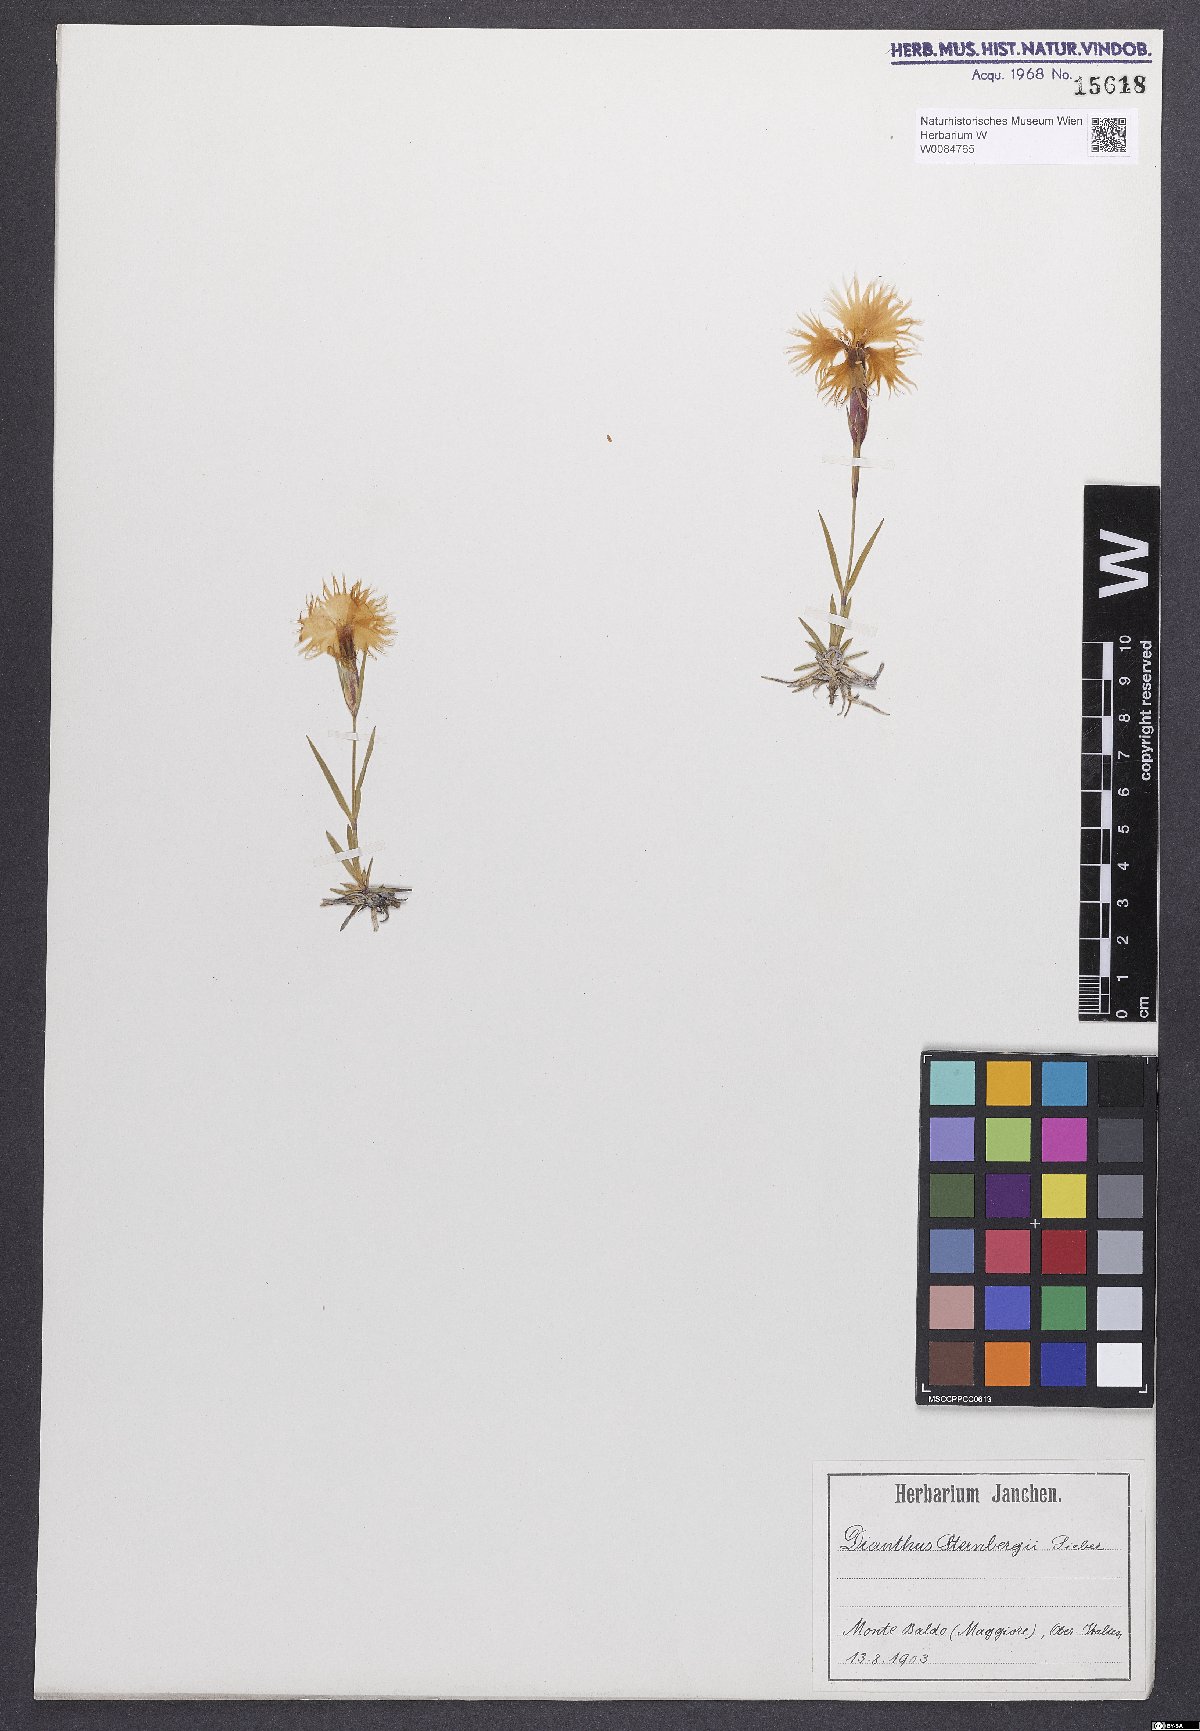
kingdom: Plantae
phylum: Tracheophyta
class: Magnoliopsida
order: Caryophyllales
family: Caryophyllaceae
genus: Dianthus
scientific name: Dianthus monspessulanus
